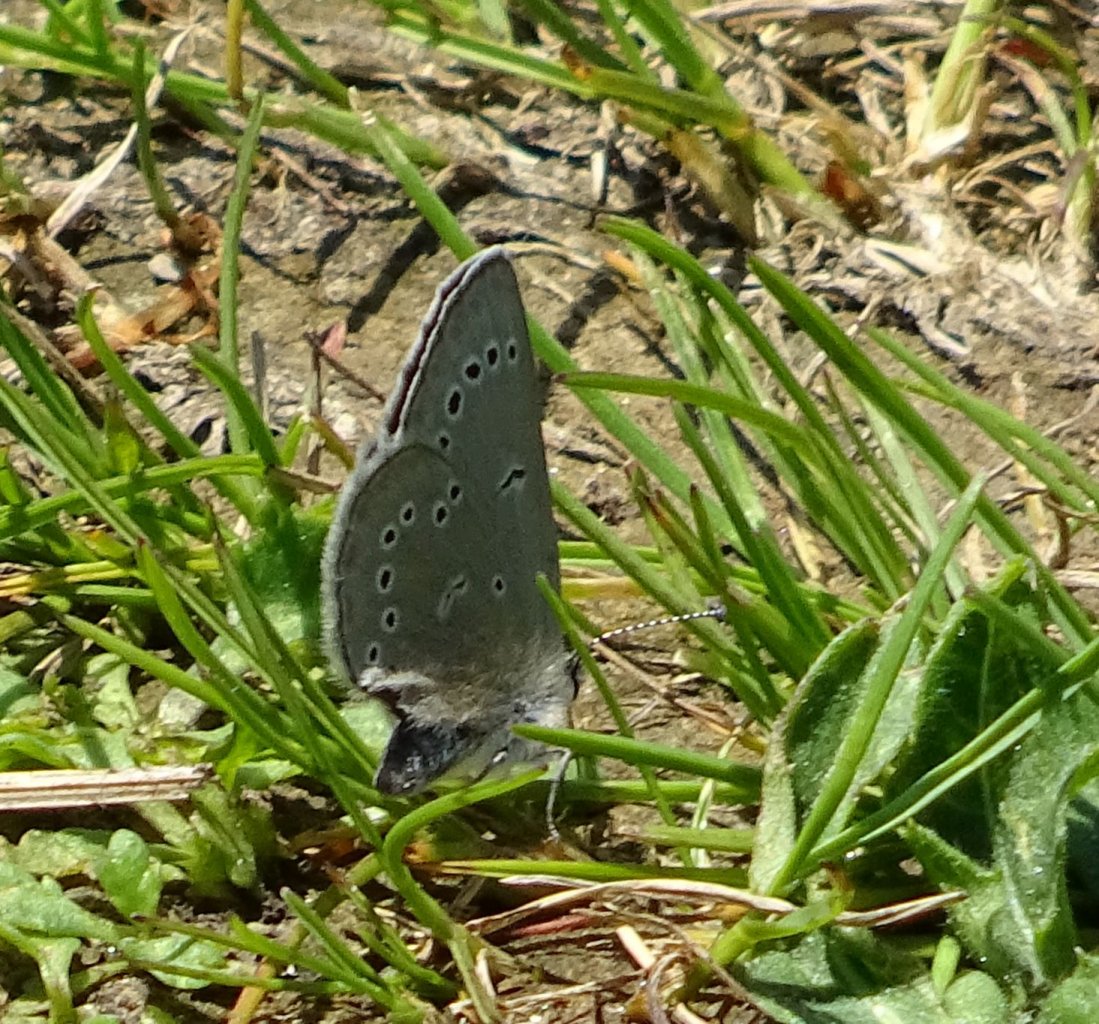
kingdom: Animalia
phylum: Arthropoda
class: Insecta
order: Lepidoptera
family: Lycaenidae
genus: Glaucopsyche
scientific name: Glaucopsyche lygdamus
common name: Silvery Blue
